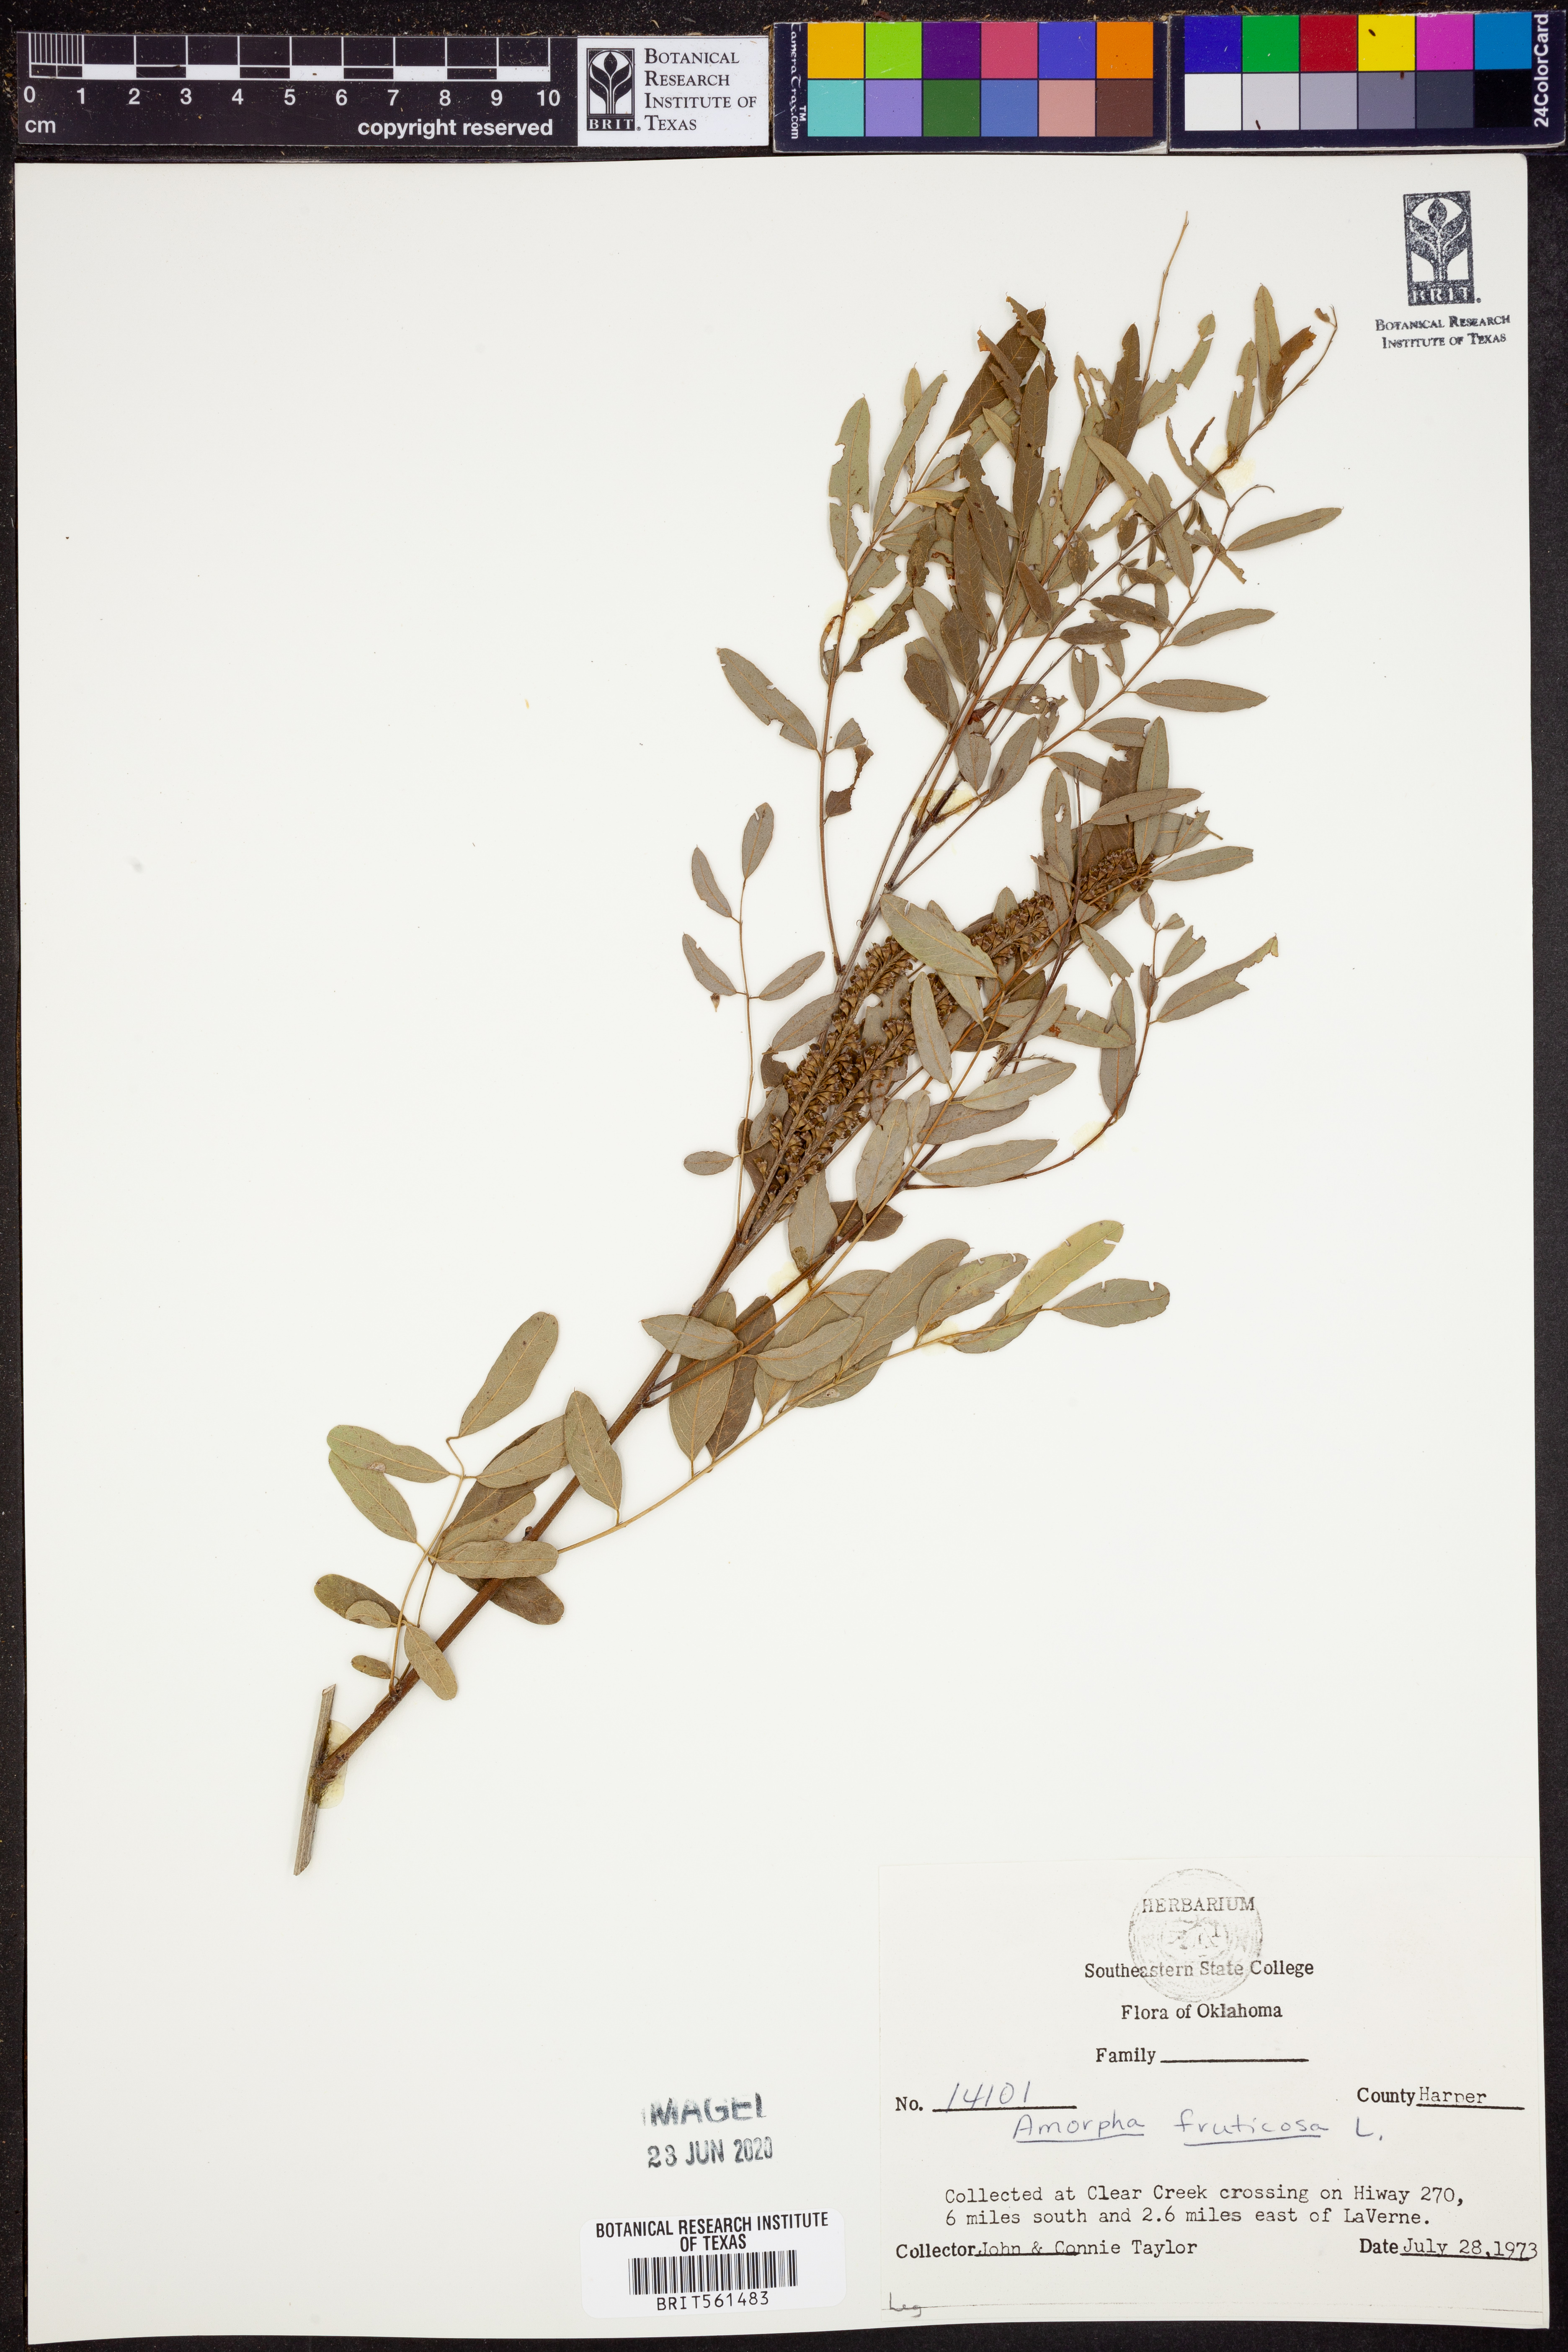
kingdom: Plantae
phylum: Tracheophyta
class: Magnoliopsida
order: Fabales
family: Fabaceae
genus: Amorpha
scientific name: Amorpha fruticosa
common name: False indigo
